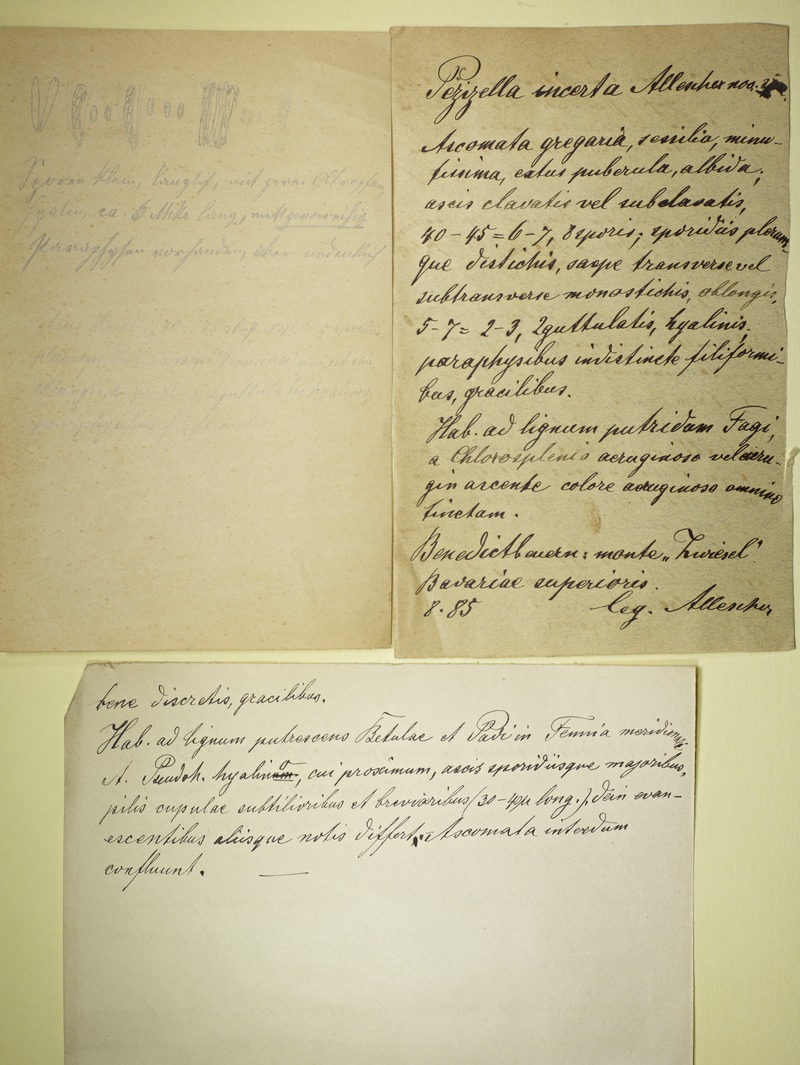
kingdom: Fungi
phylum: Ascomycota
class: Leotiomycetes
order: Helotiales
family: Hyaloscyphaceae
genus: Hyaloscypha
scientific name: Hyaloscypha vitreola
